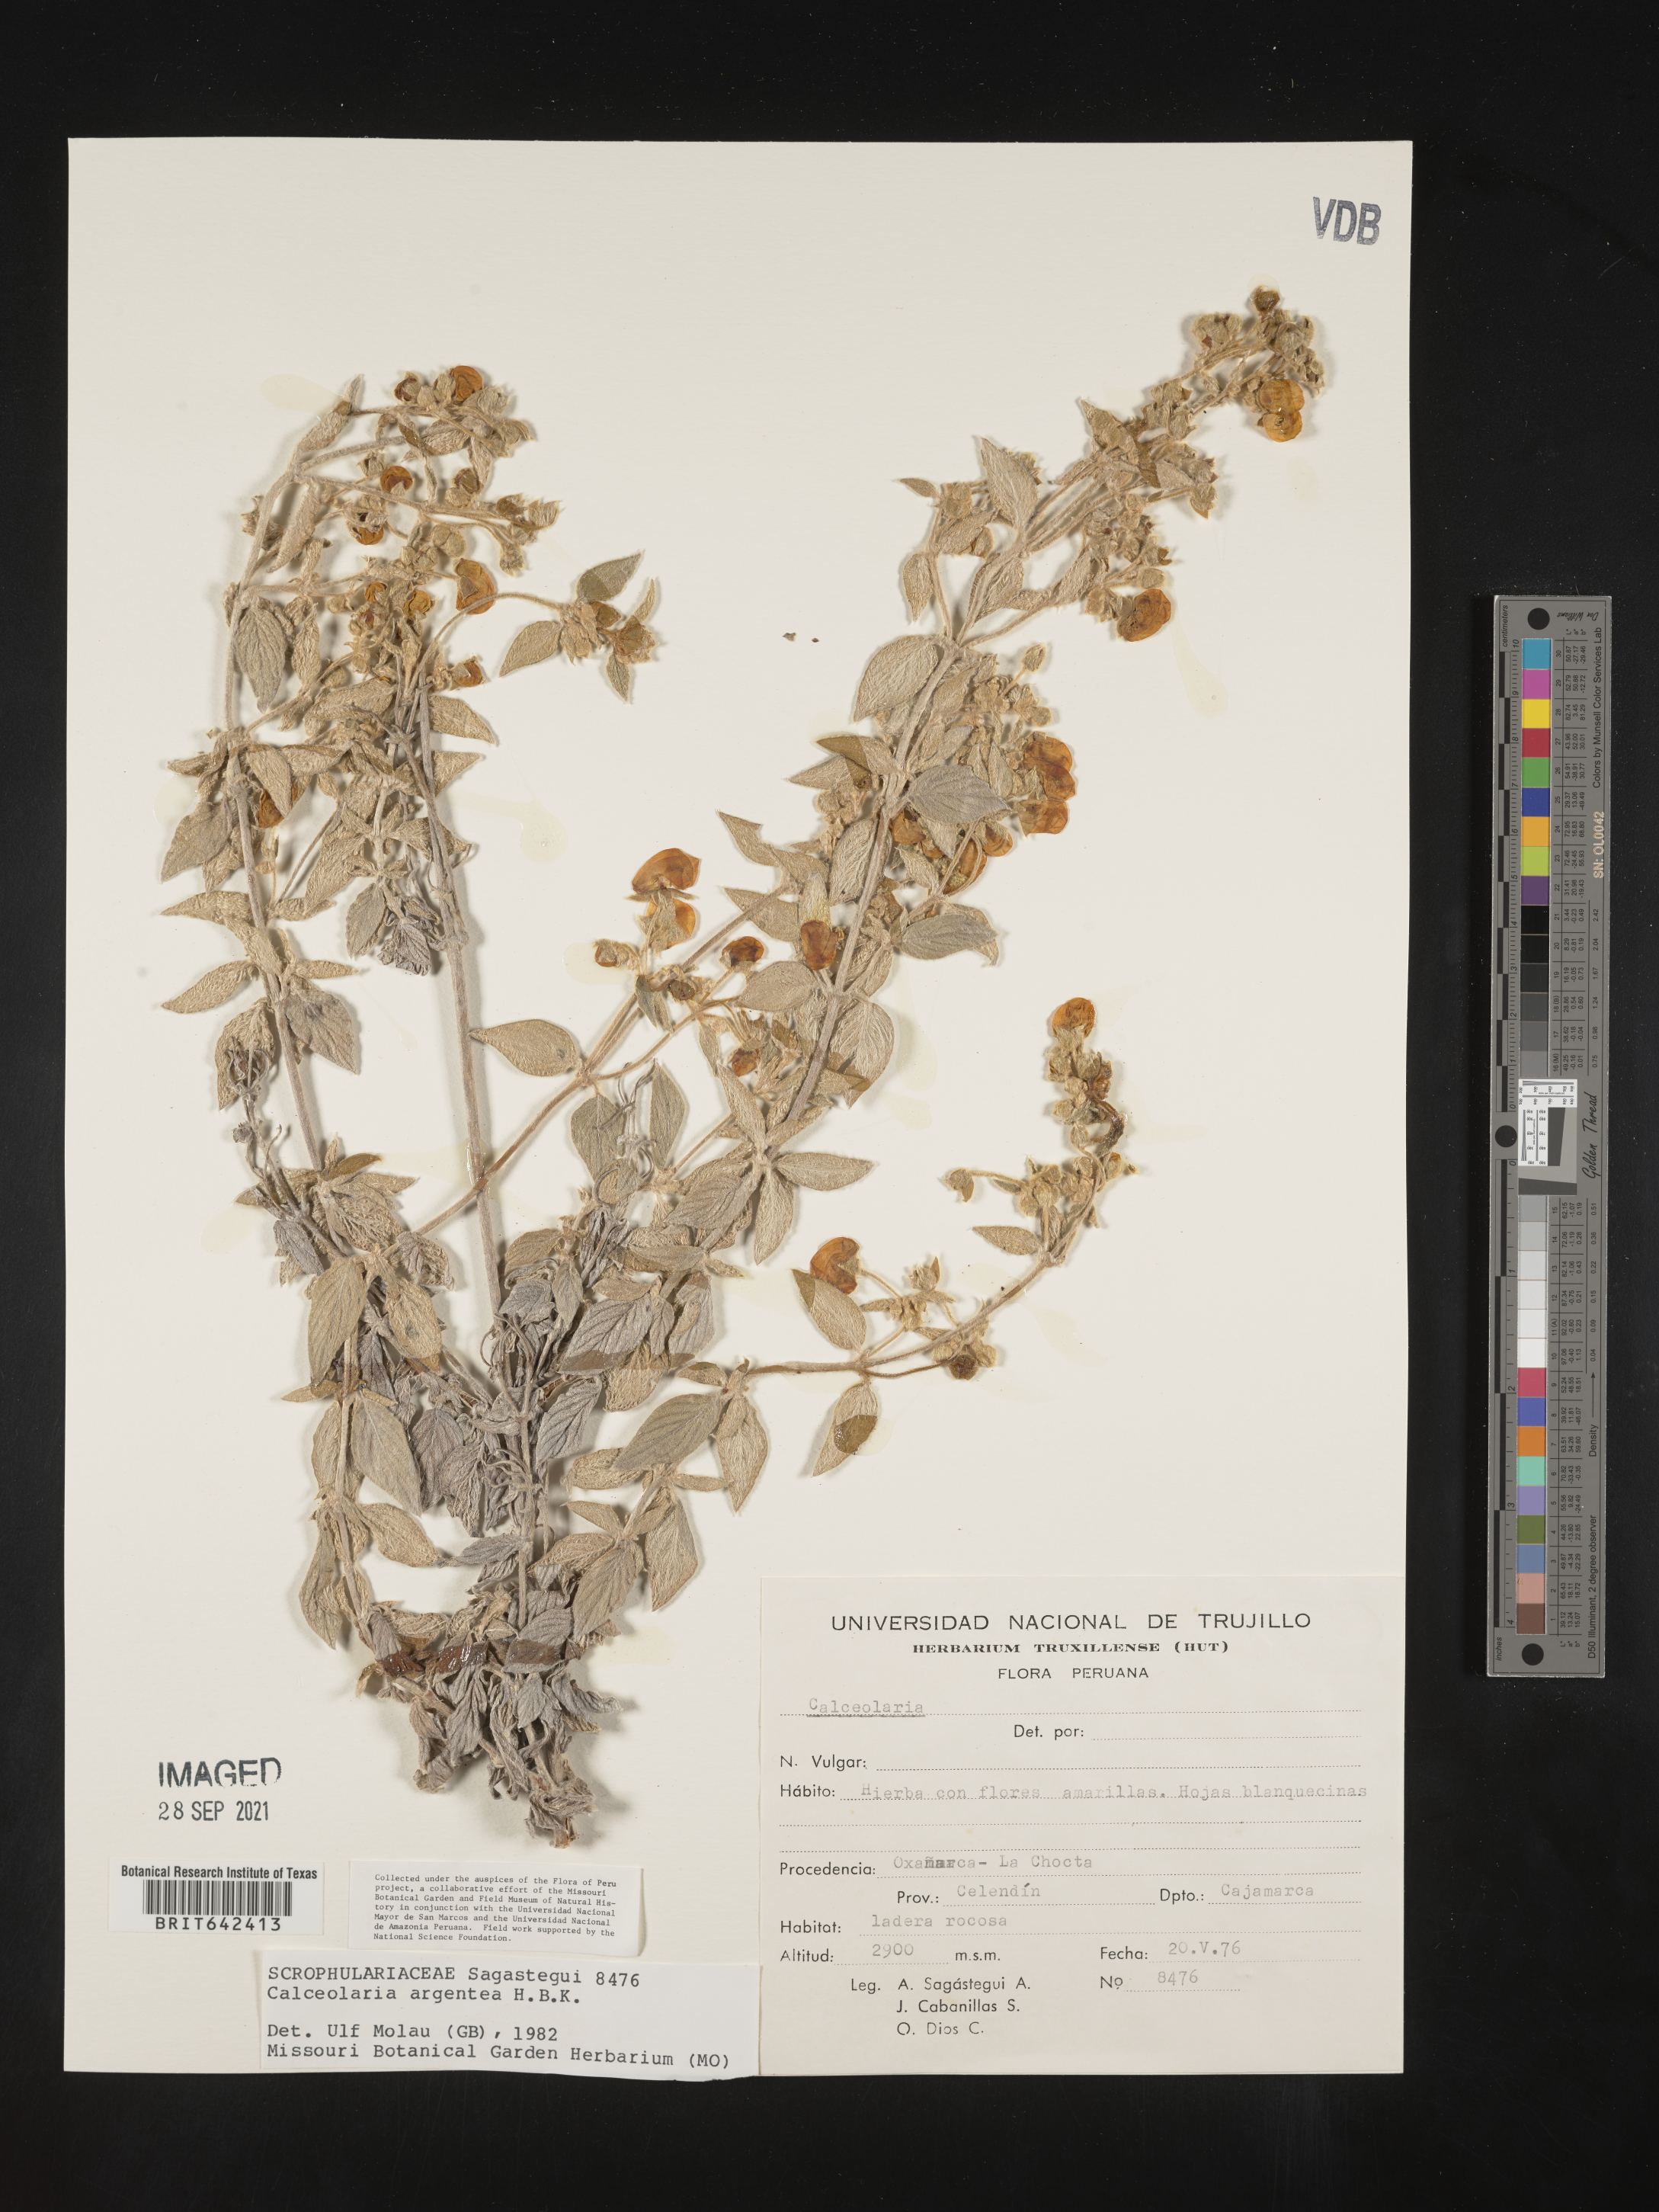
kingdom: Plantae
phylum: Tracheophyta
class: Magnoliopsida
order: Lamiales
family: Calceolariaceae
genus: Calceolaria
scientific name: Calceolaria argentea
